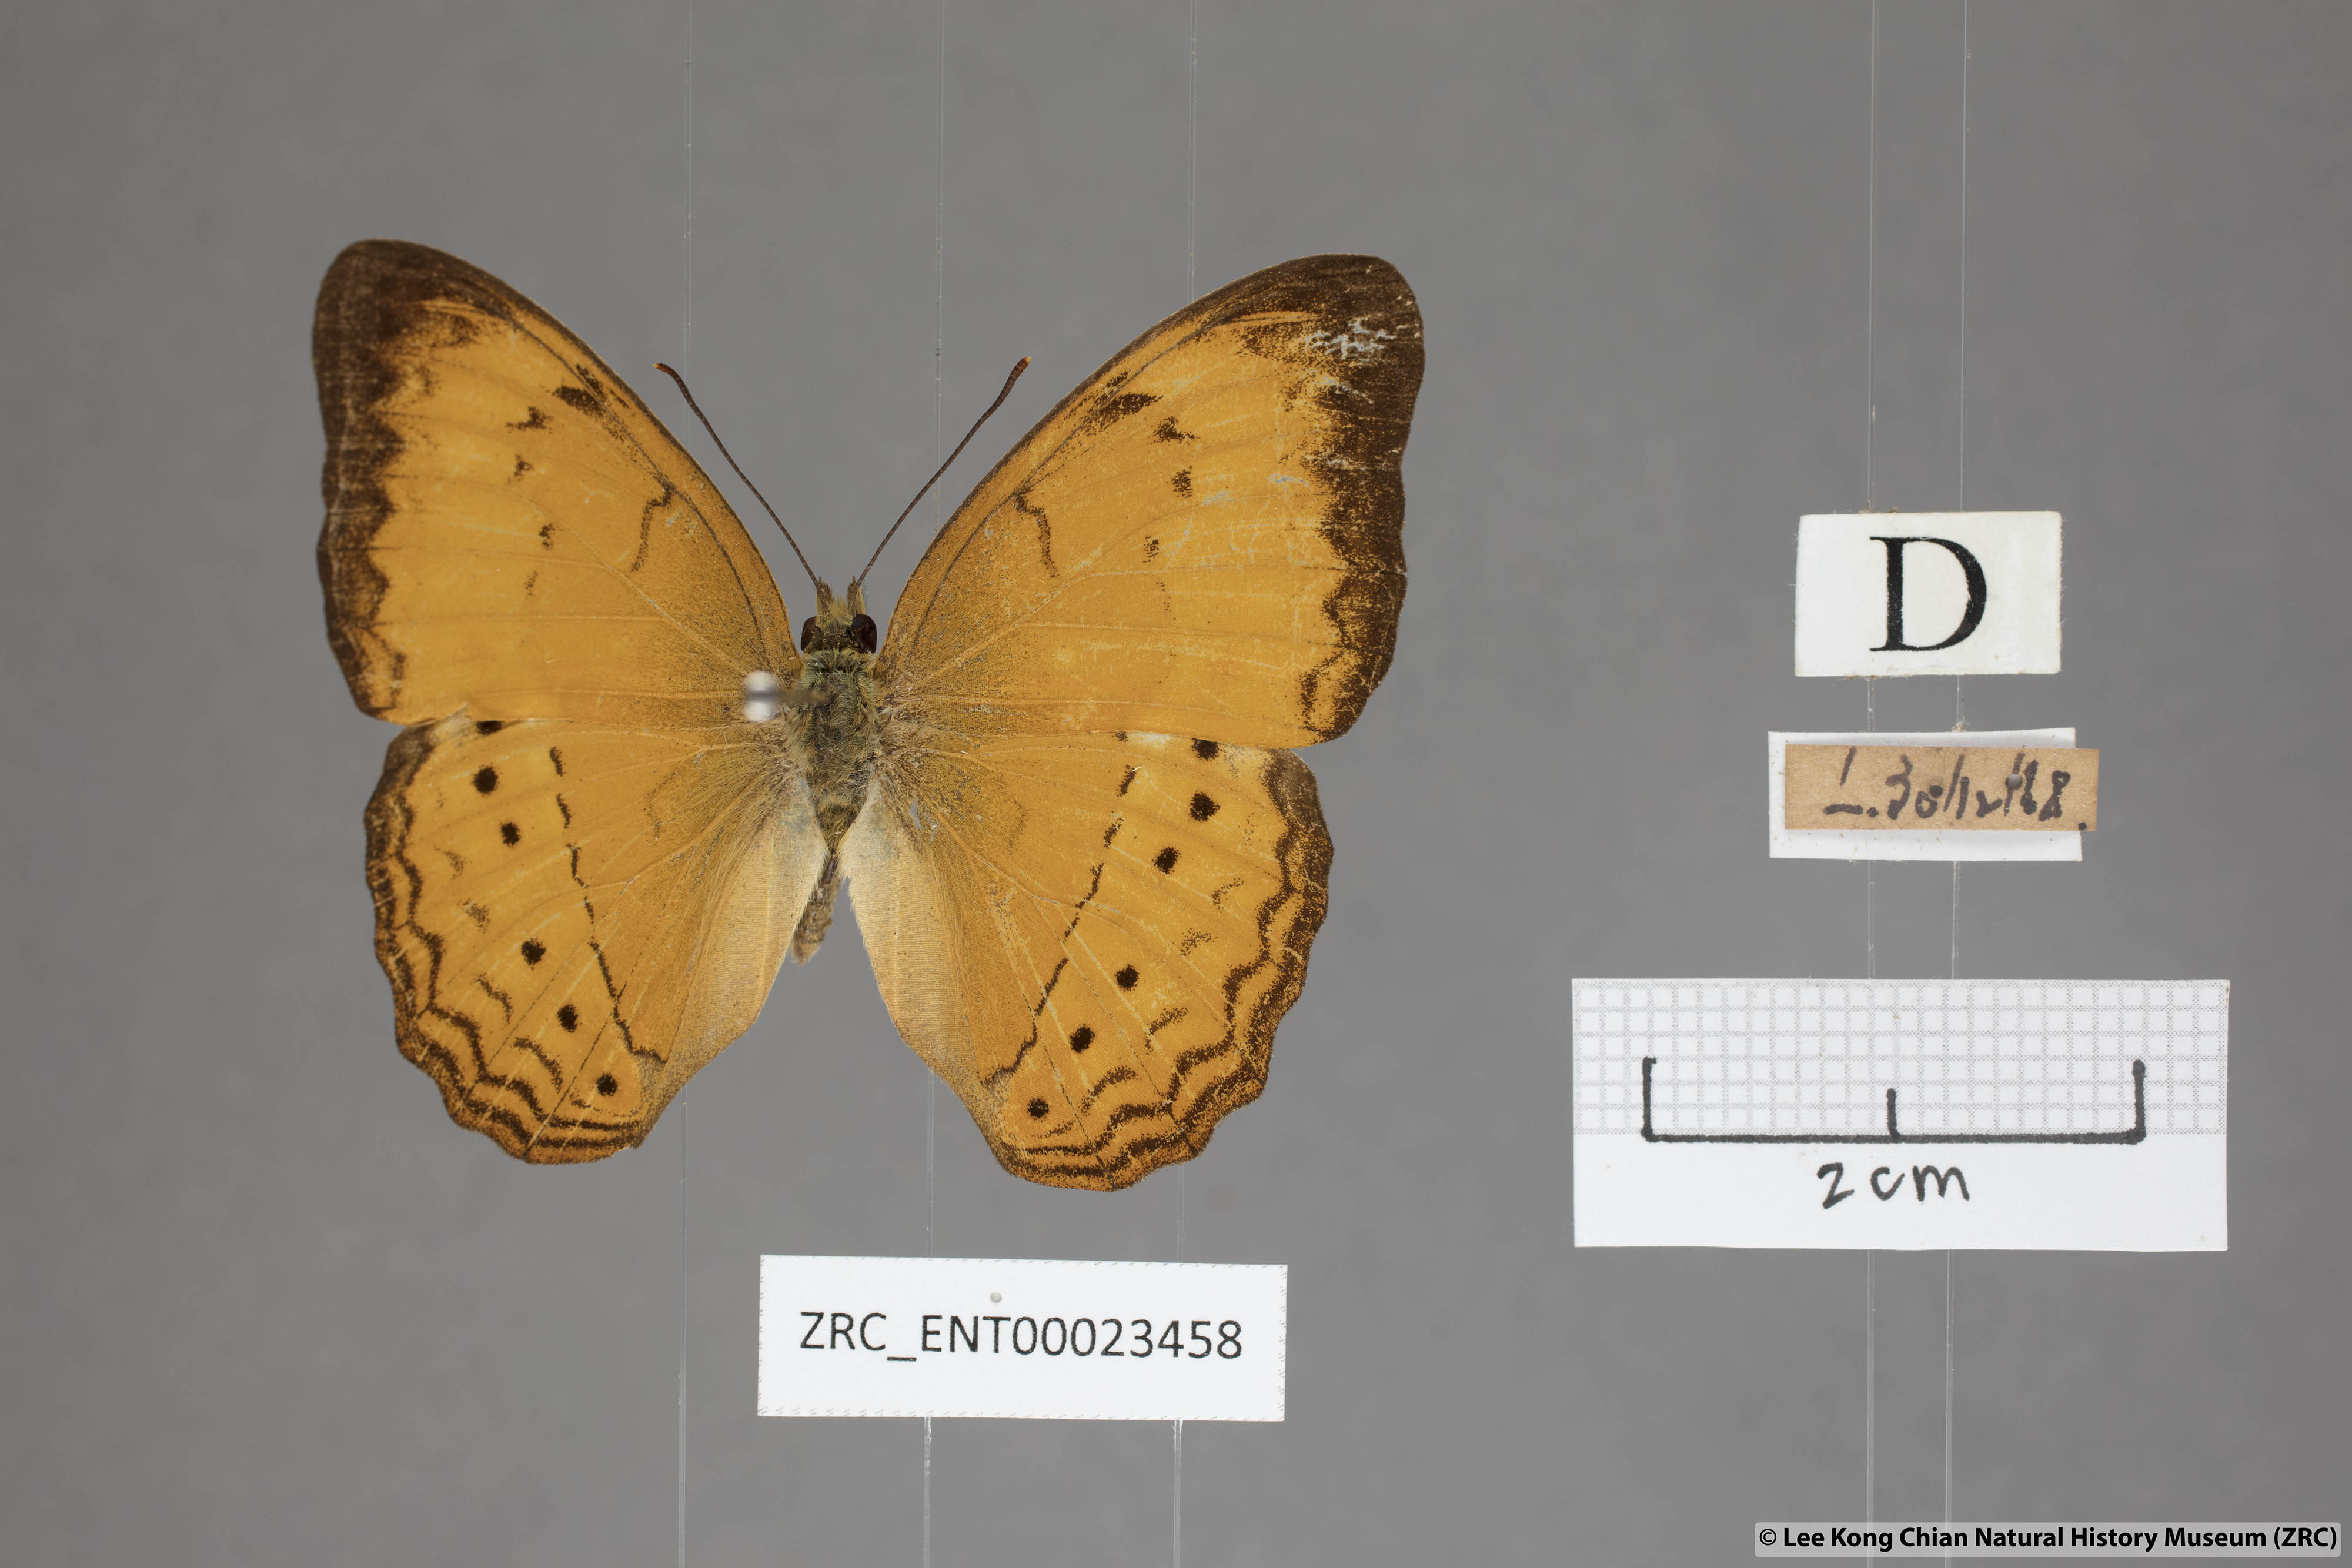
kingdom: Animalia
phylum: Arthropoda
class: Insecta
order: Lepidoptera
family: Nymphalidae
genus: Cirrochroa
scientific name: Cirrochroa surya
